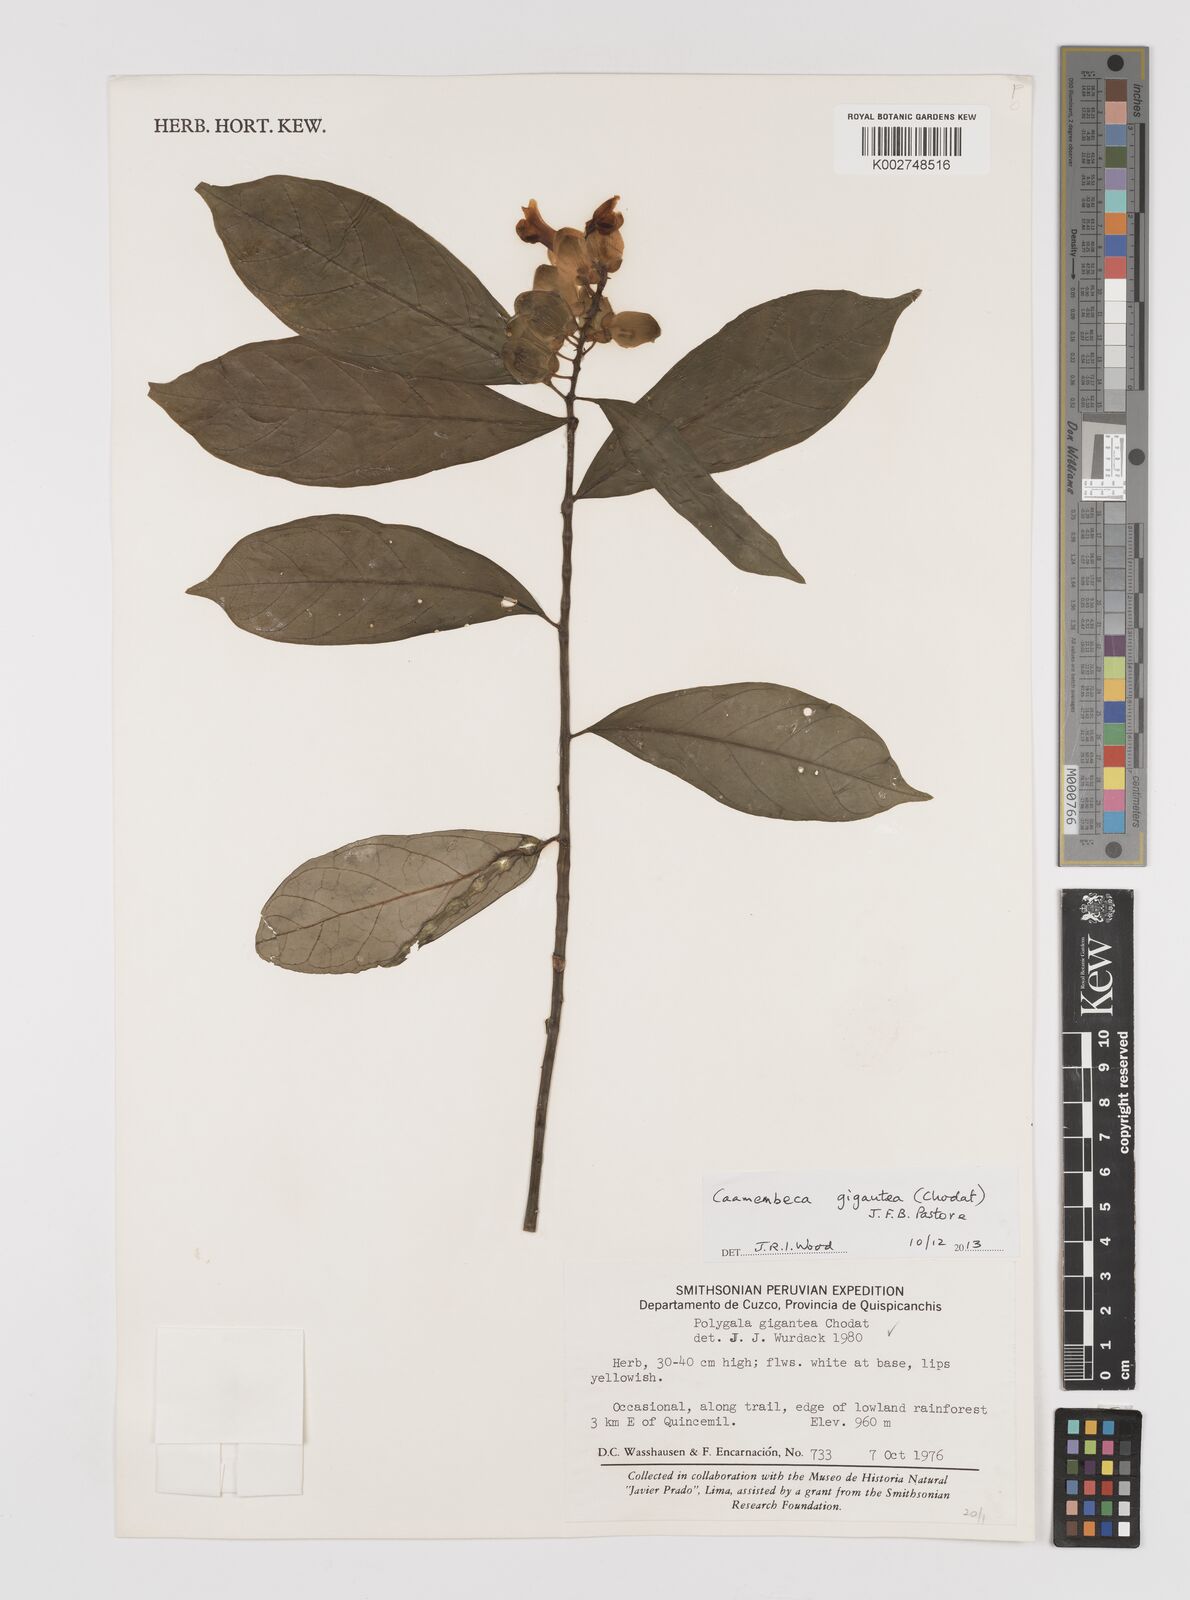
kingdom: Plantae
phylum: Tracheophyta
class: Magnoliopsida
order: Fabales
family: Polygalaceae
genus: Caamembeca
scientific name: Caamembeca gigantea
